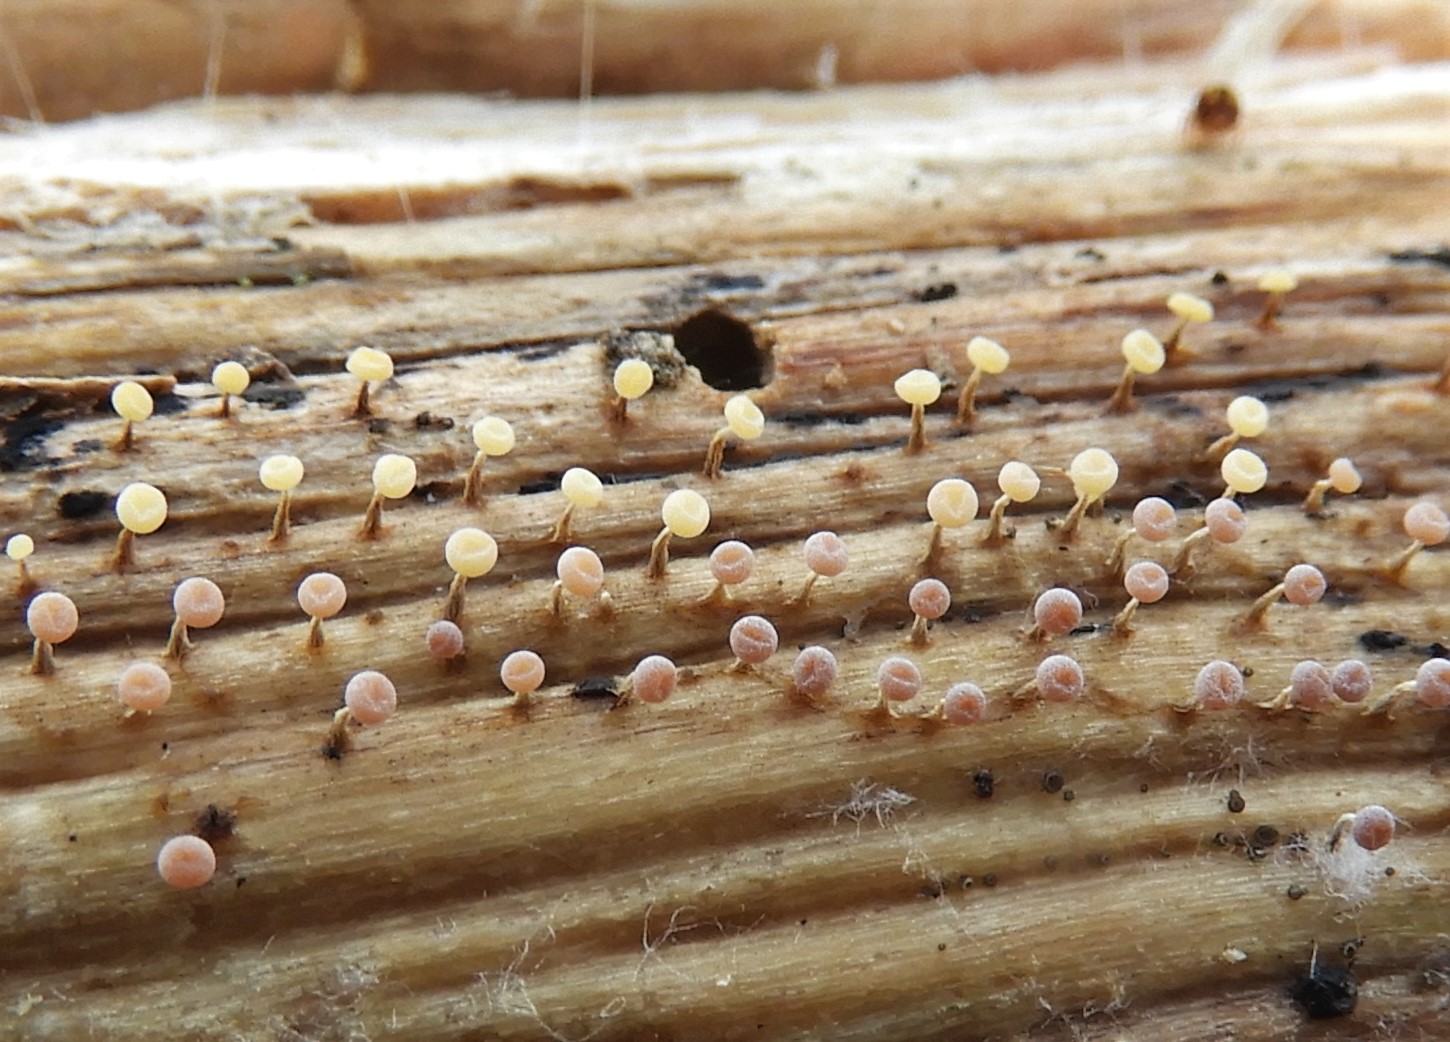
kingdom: Protozoa
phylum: Mycetozoa
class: Myxomycetes
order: Physarales
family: Physaraceae
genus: Physarum
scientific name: Physarum
